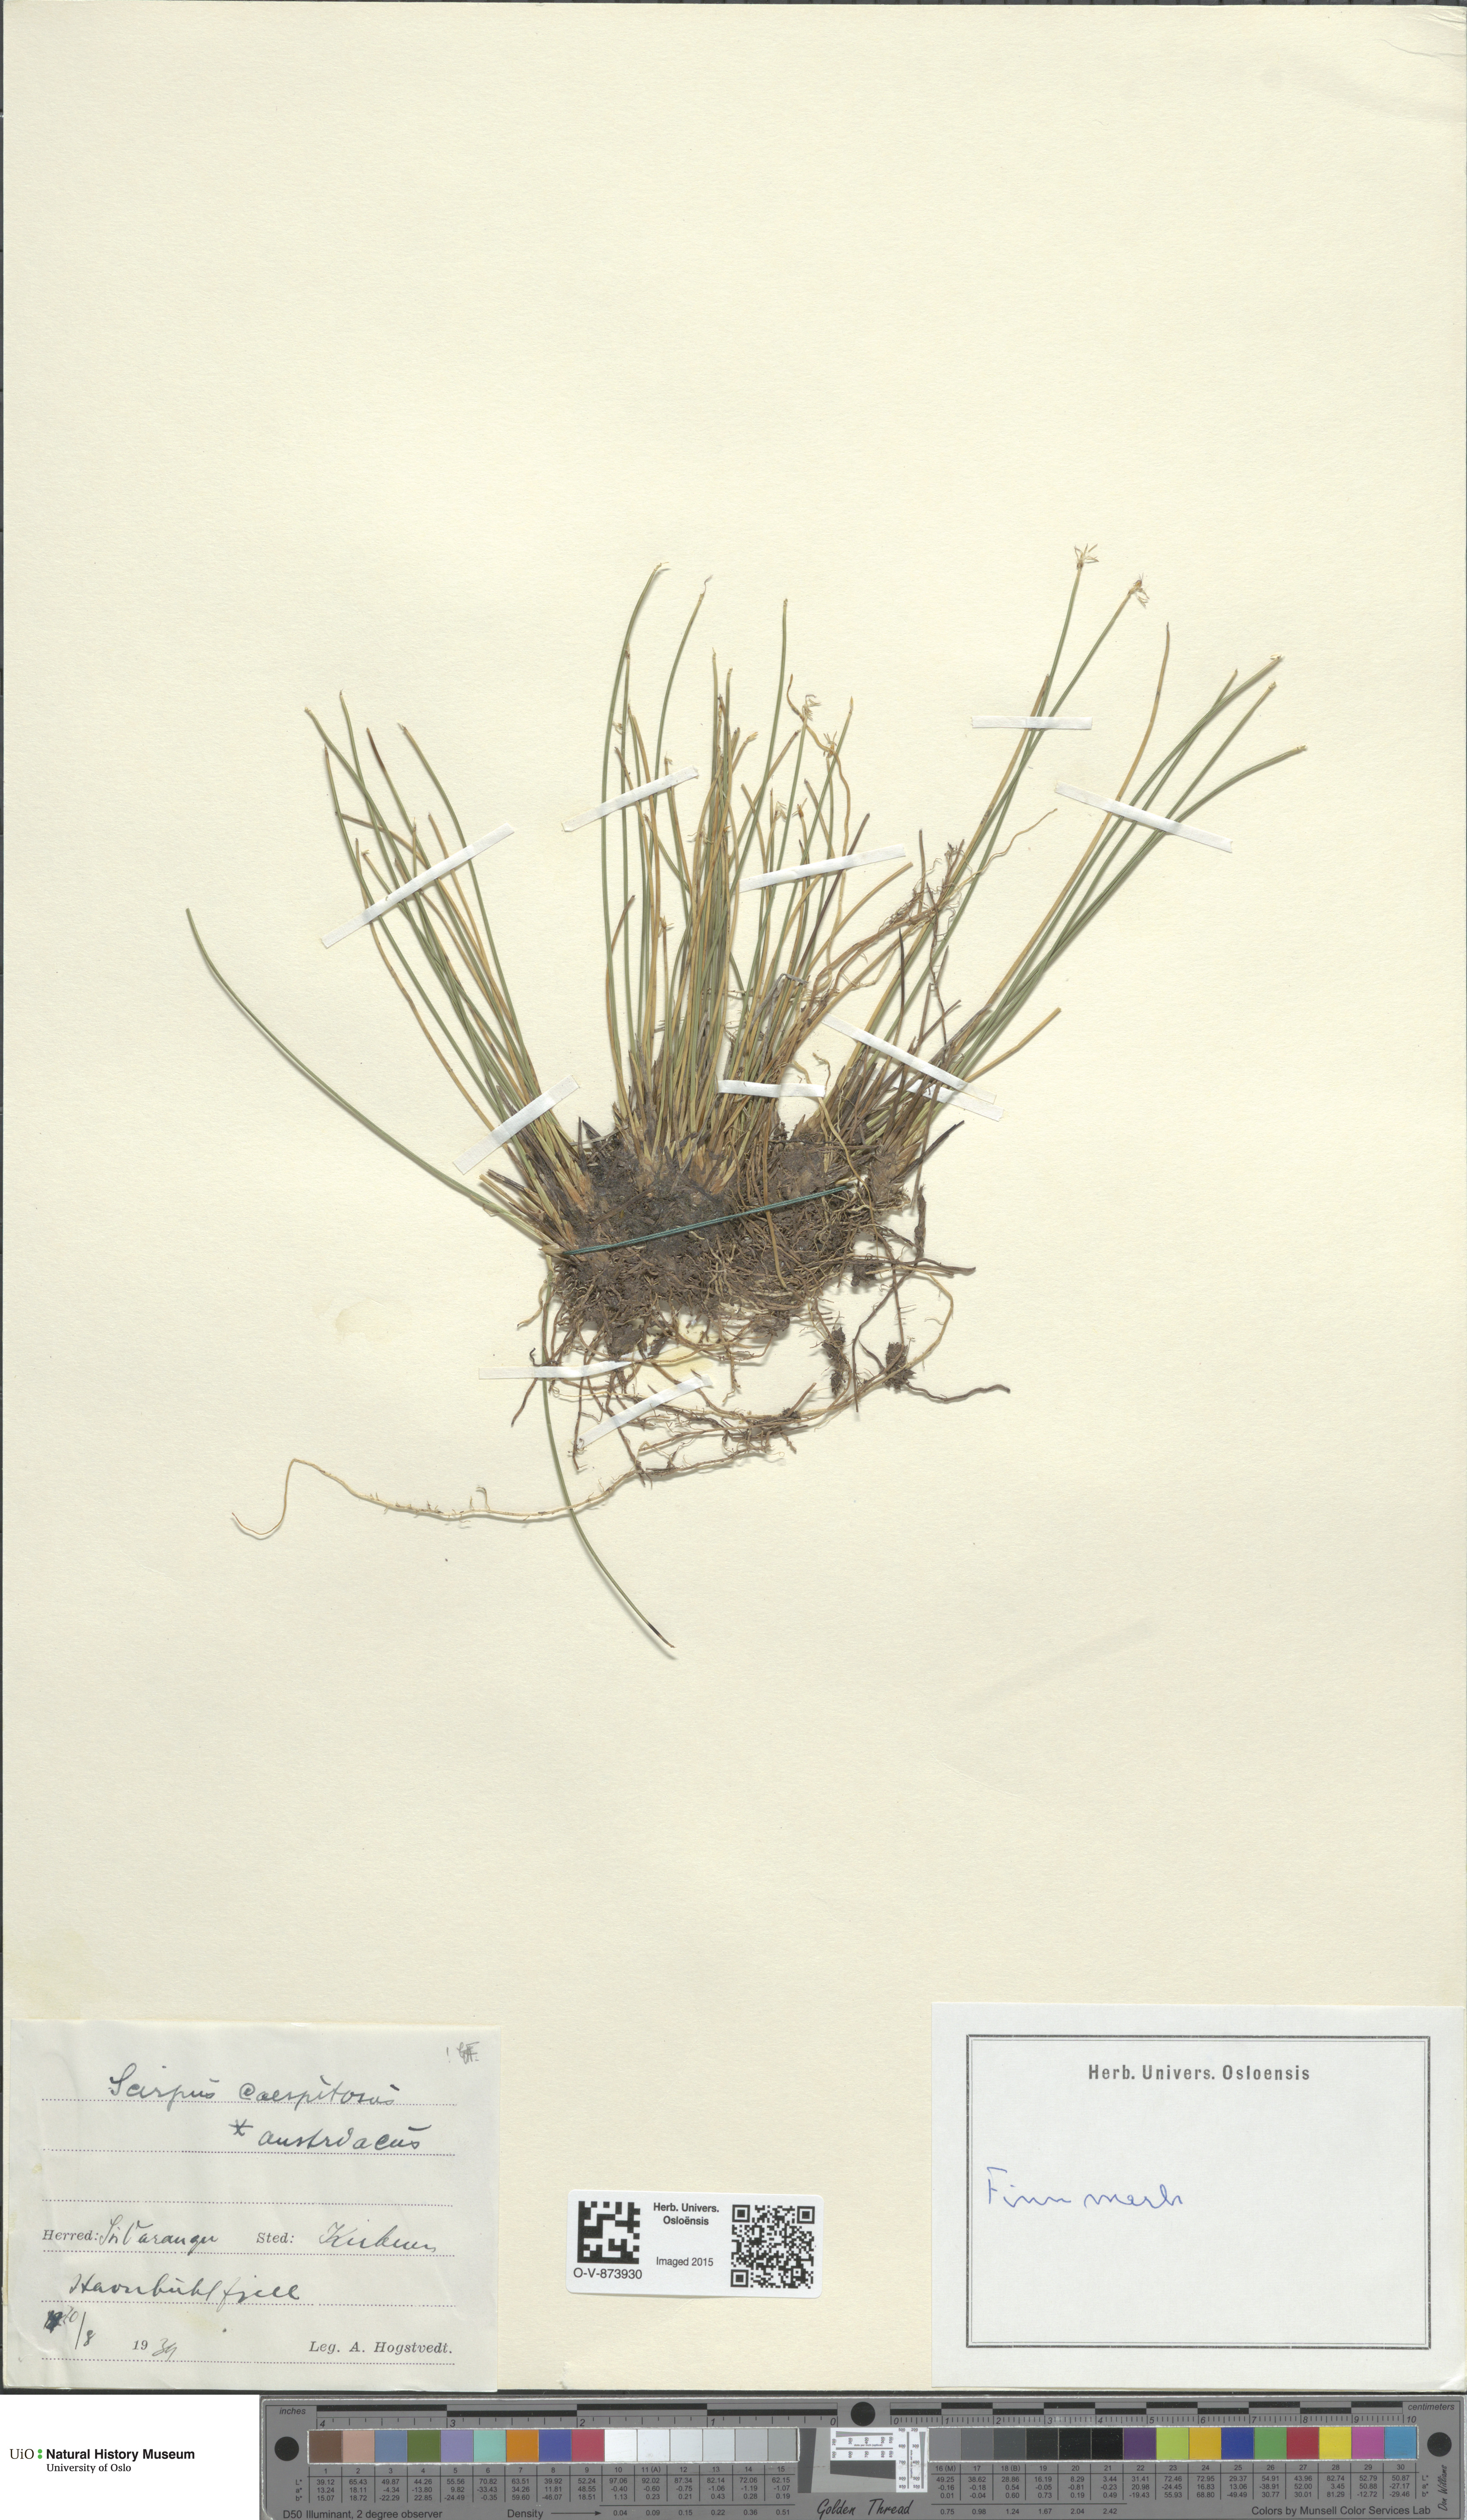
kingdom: Plantae
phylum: Tracheophyta
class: Liliopsida
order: Poales
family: Cyperaceae
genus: Trichophorum
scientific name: Trichophorum cespitosum
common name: Cespitose bulrush
